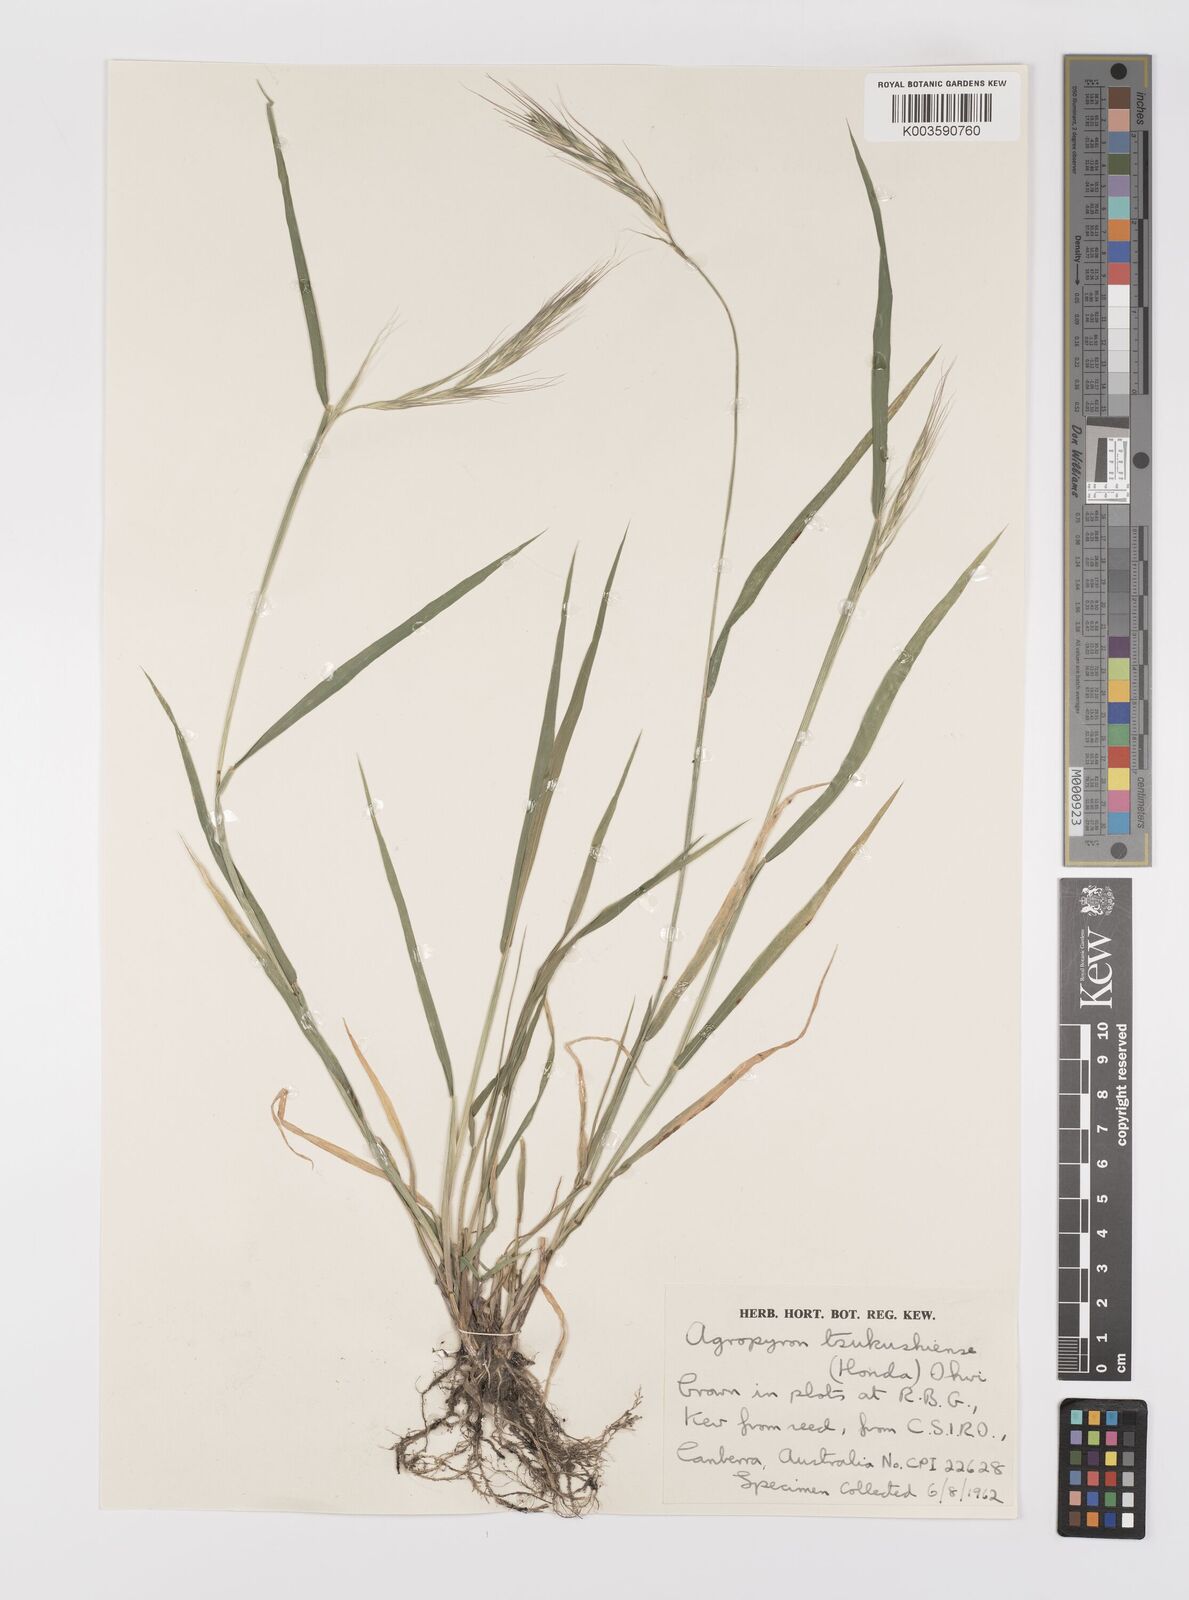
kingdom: Plantae
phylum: Tracheophyta
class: Liliopsida
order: Poales
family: Poaceae
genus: Elymus
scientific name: Elymus tsukushiensis
